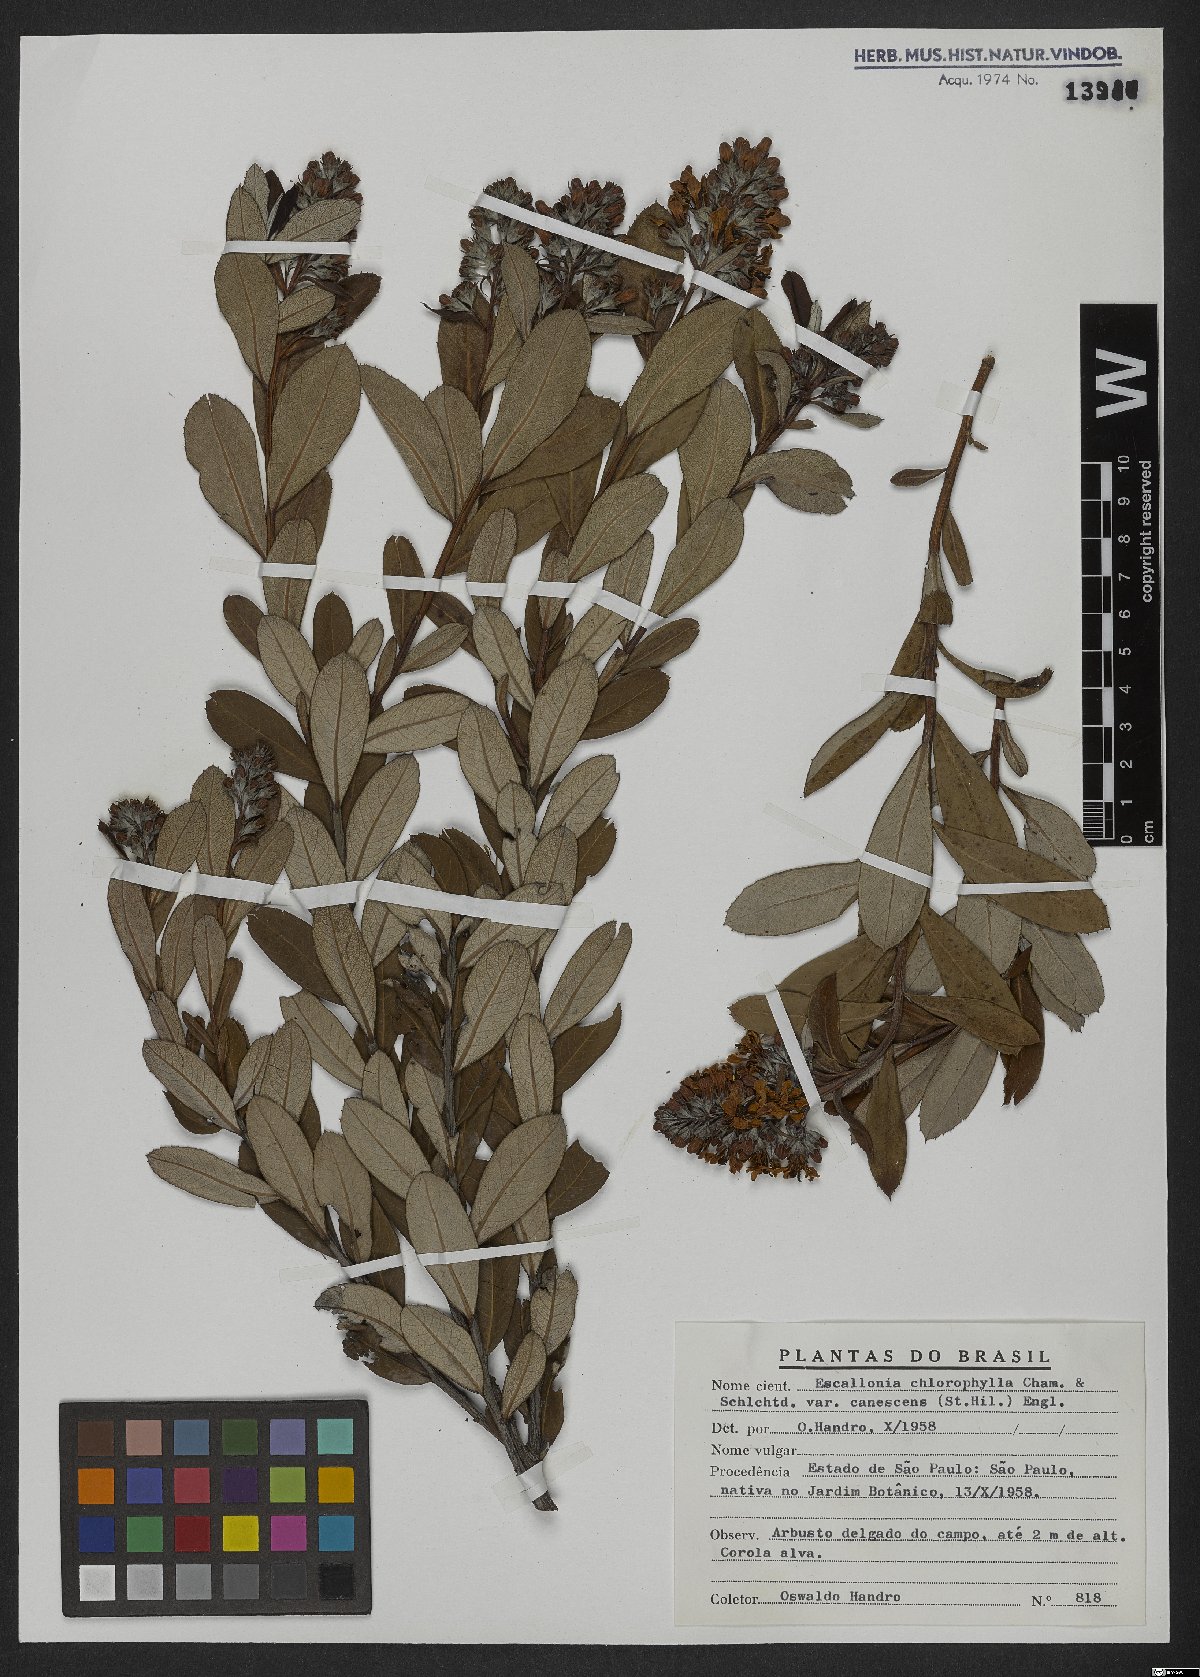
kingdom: Plantae
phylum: Tracheophyta
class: Magnoliopsida
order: Escalloniales
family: Escalloniaceae
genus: Escallonia
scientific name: Escallonia chlorophylla
